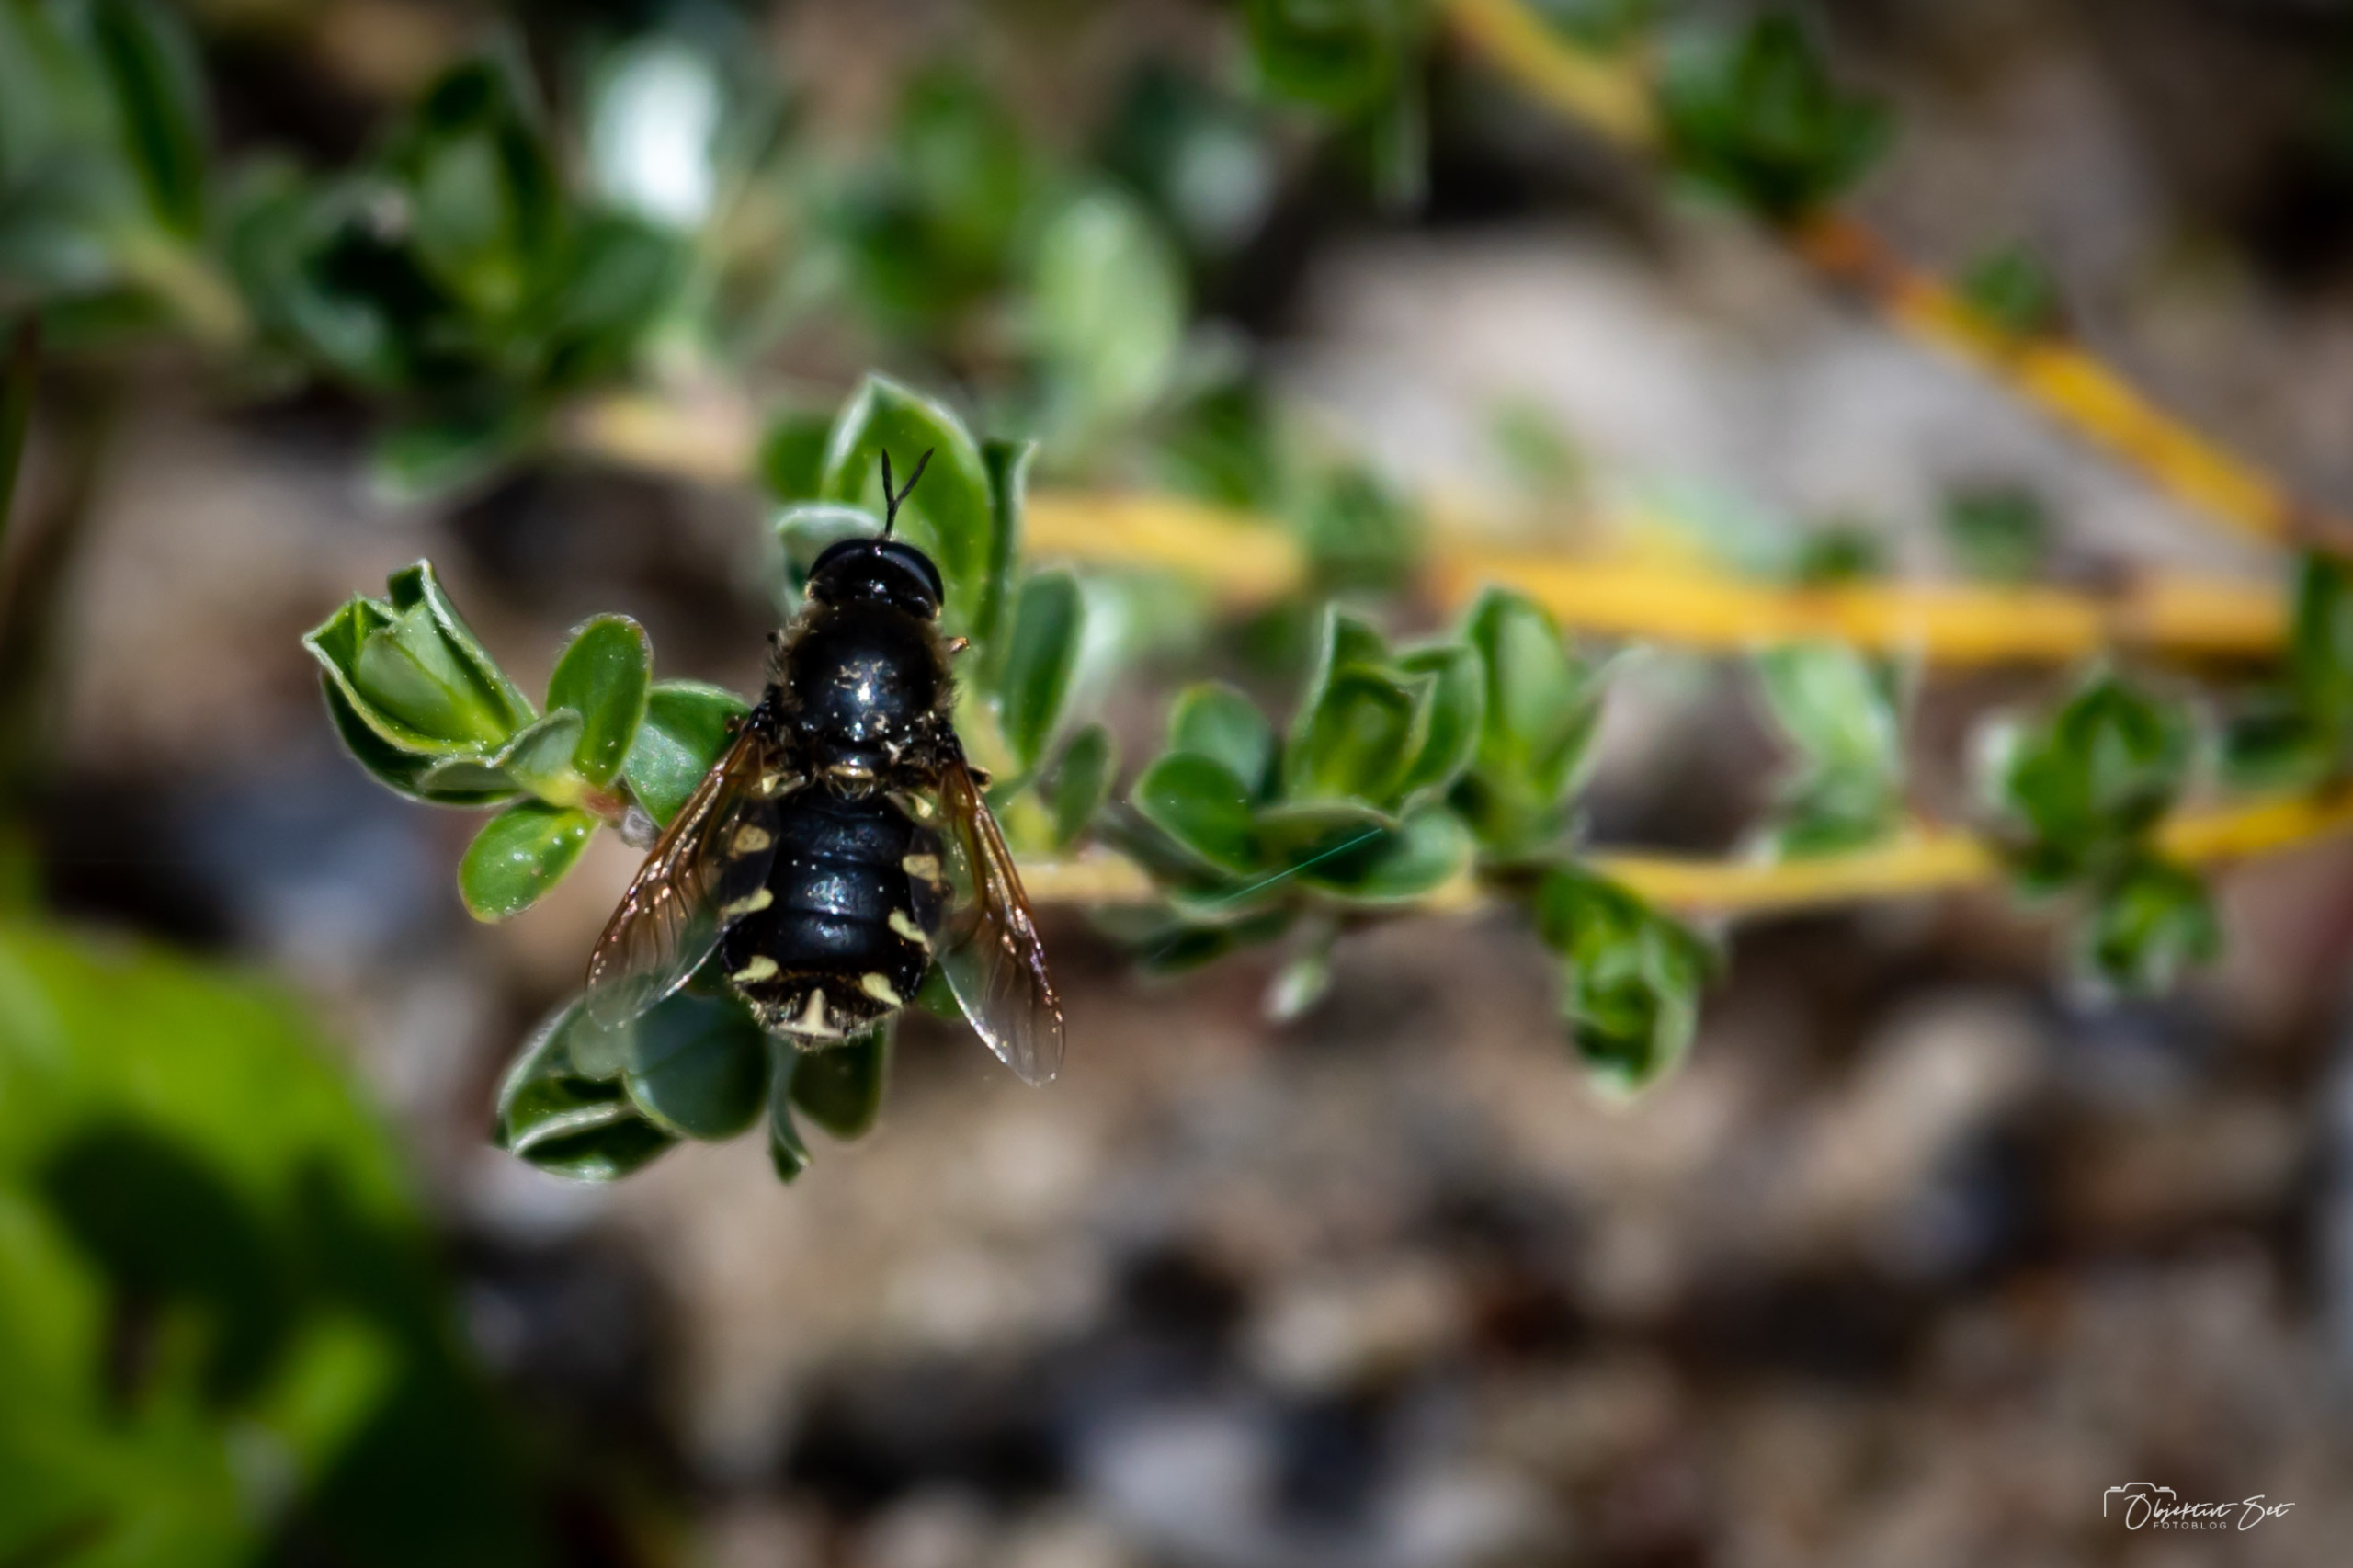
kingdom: Animalia
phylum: Arthropoda
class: Insecta
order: Diptera
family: Stratiomyidae
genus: Stratiomys
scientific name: Stratiomys singularior
